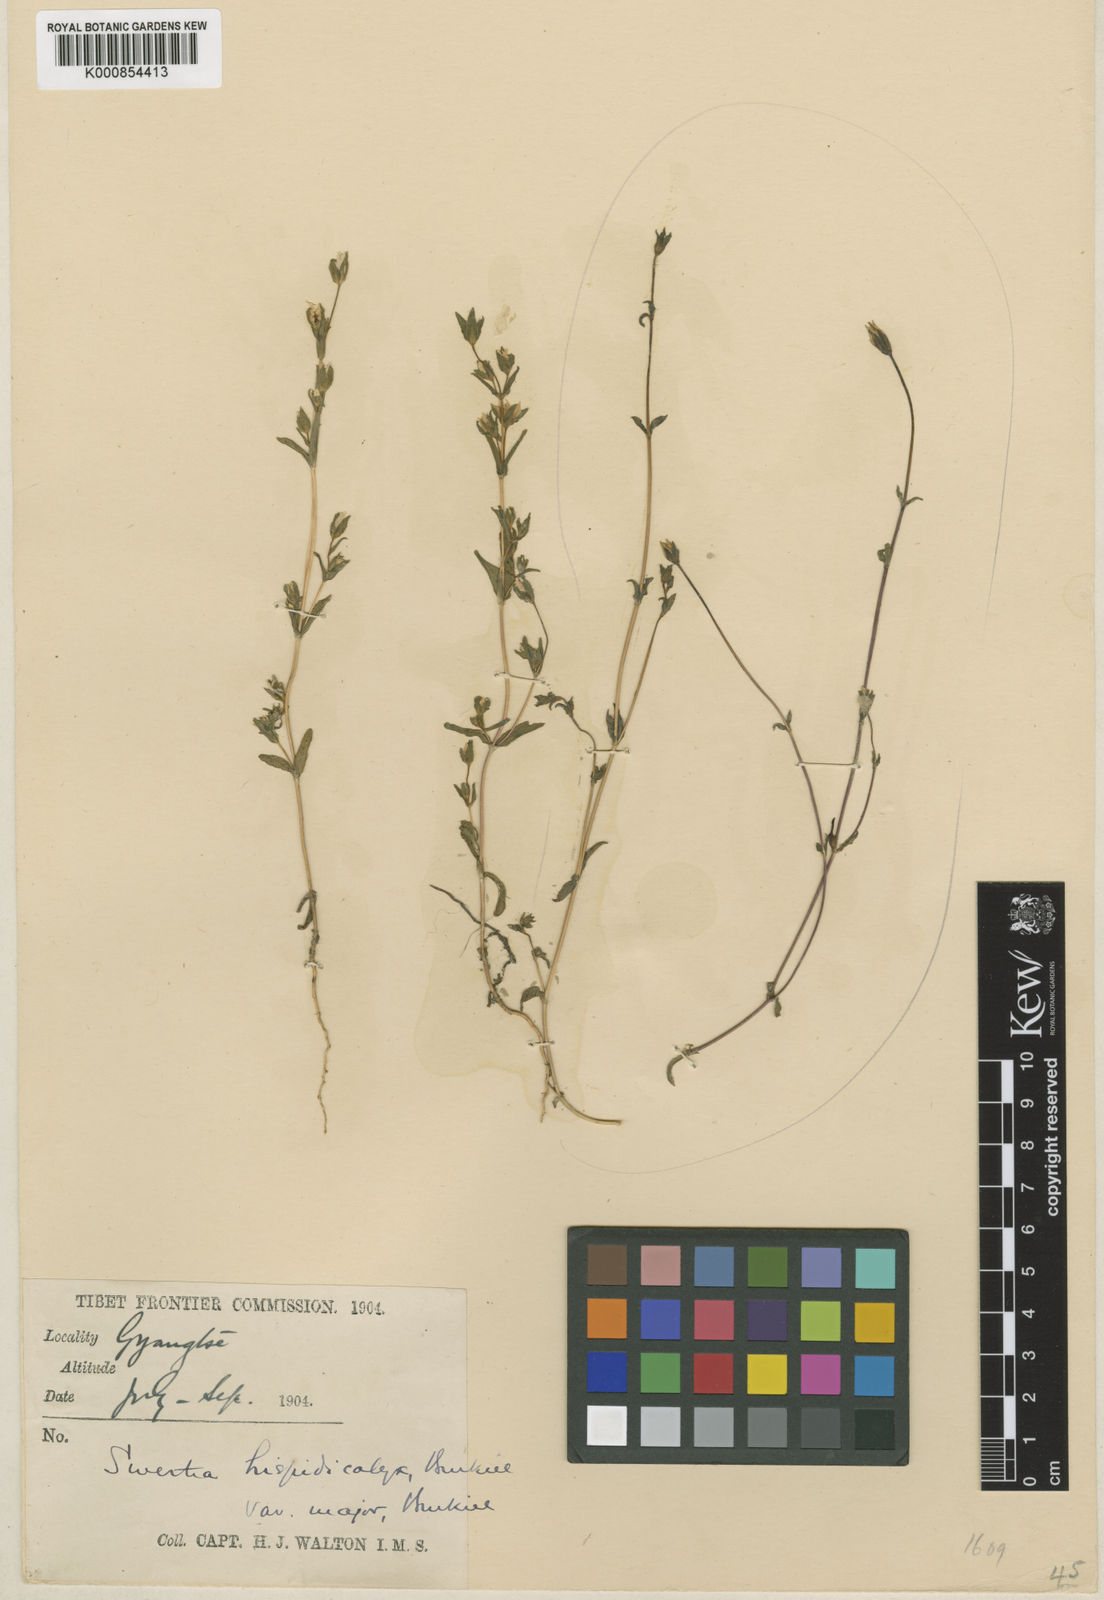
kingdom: Plantae
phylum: Tracheophyta
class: Magnoliopsida
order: Gentianales
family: Gentianaceae
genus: Swertia
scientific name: Swertia hispidicalyx
